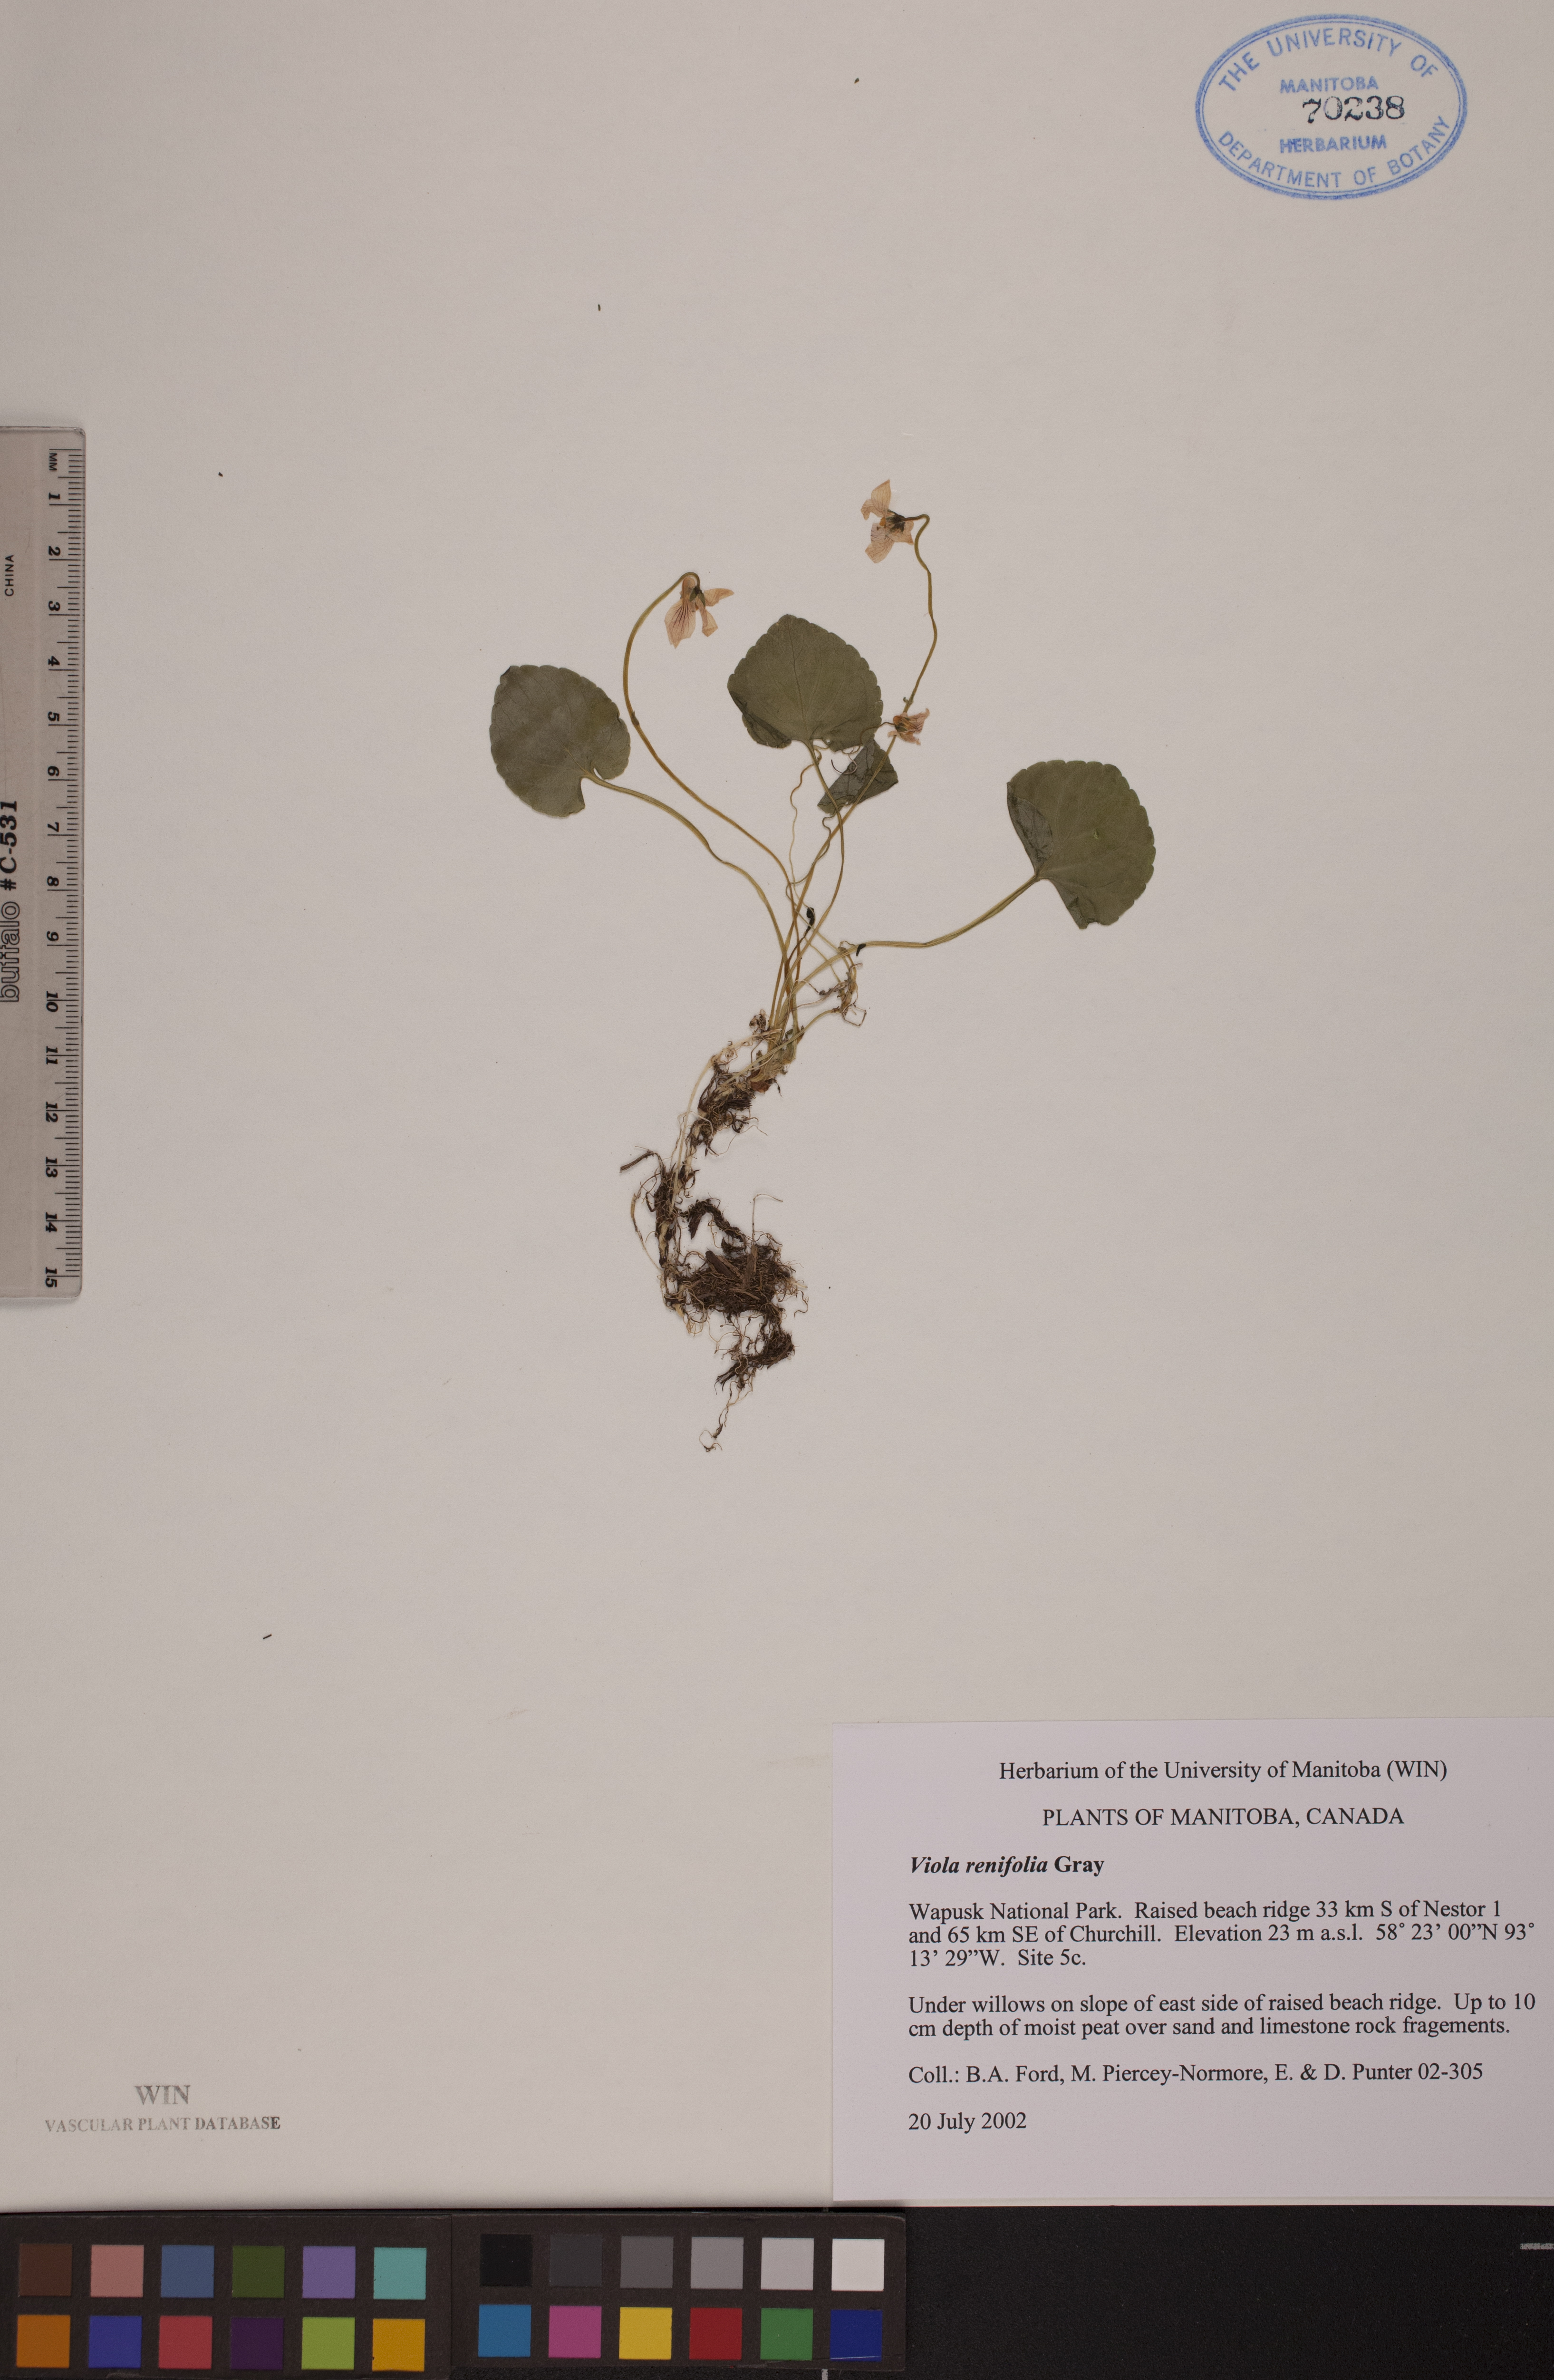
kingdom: Plantae
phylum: Tracheophyta
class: Magnoliopsida
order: Malpighiales
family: Violaceae
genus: Viola
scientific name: Viola renifolia
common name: Kidney-leaf violet
